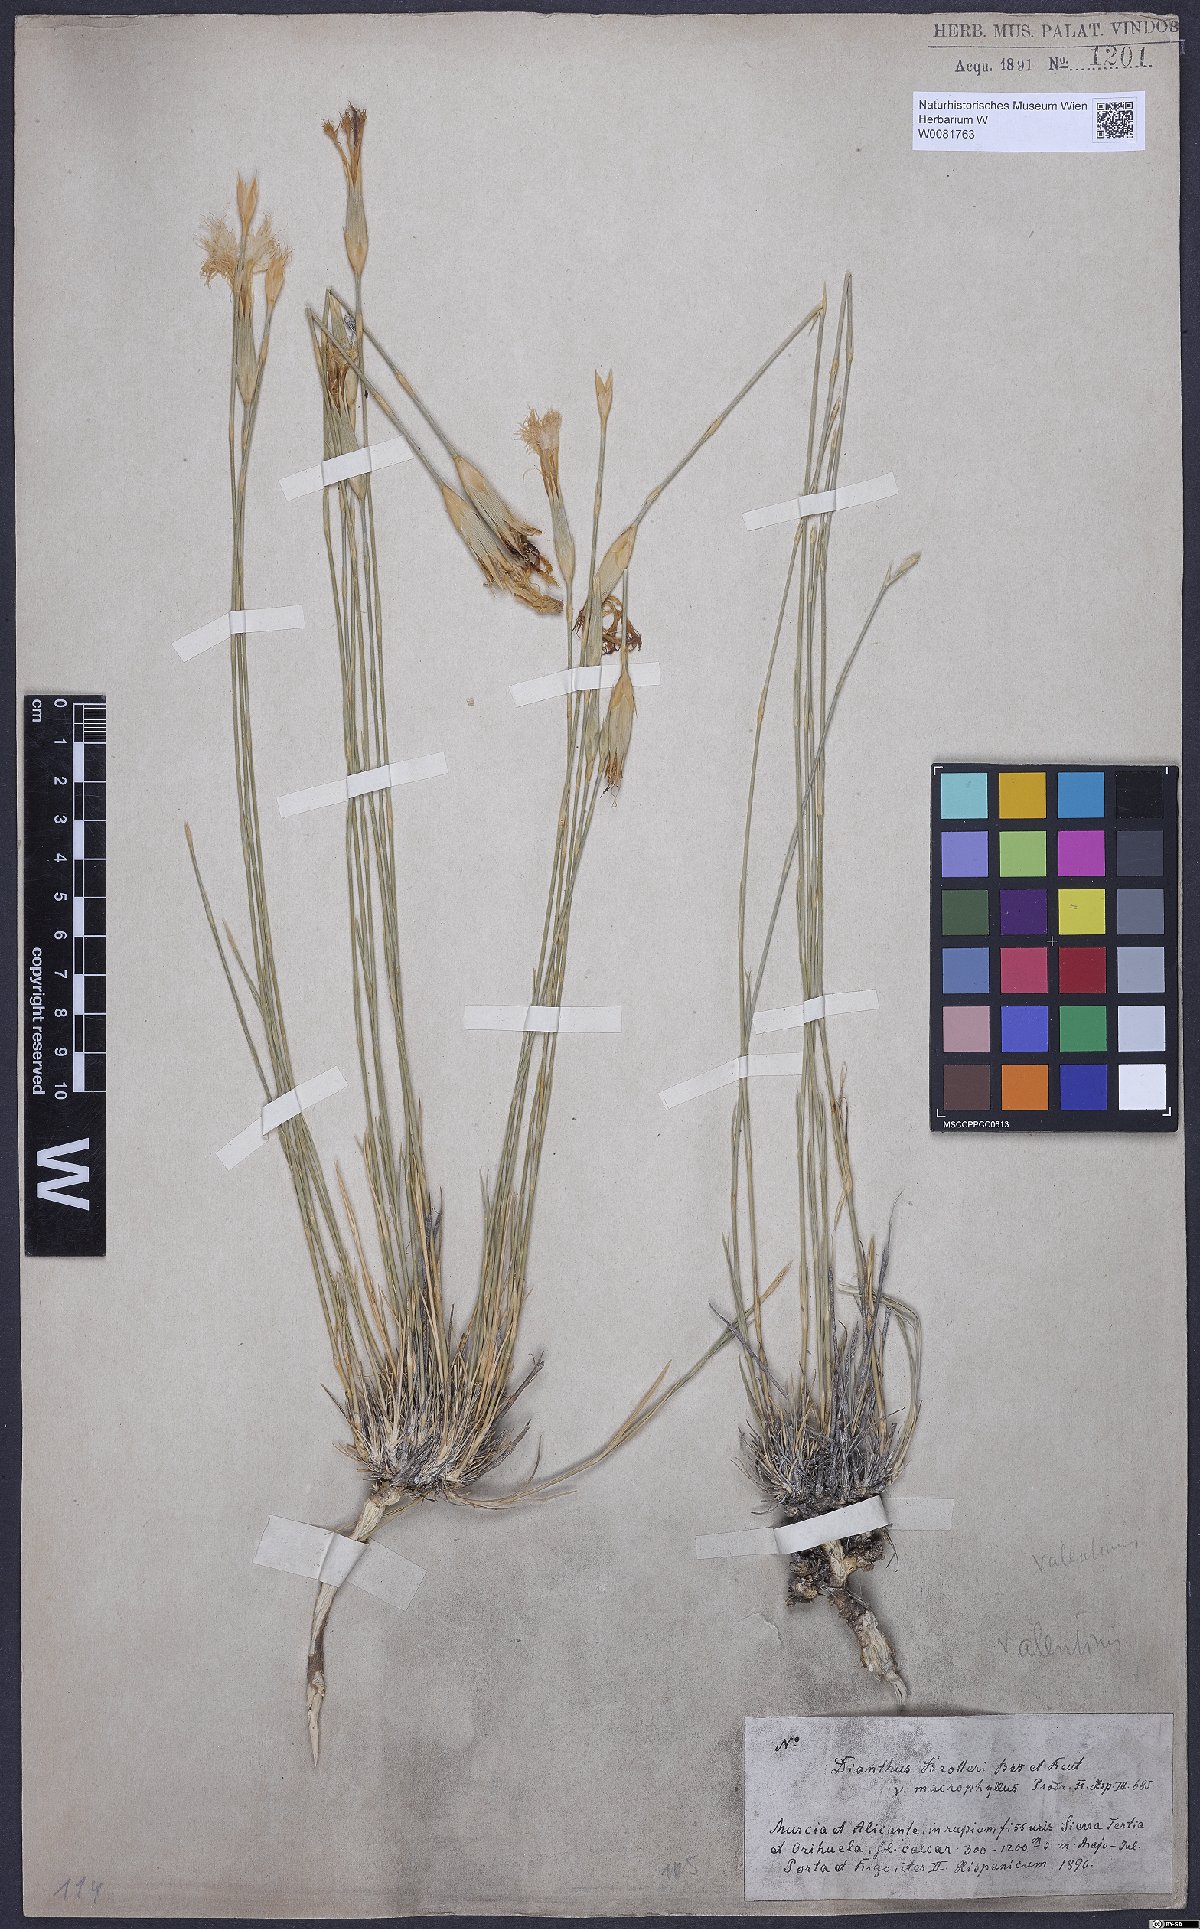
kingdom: Plantae
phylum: Tracheophyta
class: Magnoliopsida
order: Caryophyllales
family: Caryophyllaceae
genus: Dianthus
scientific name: Dianthus broteri
